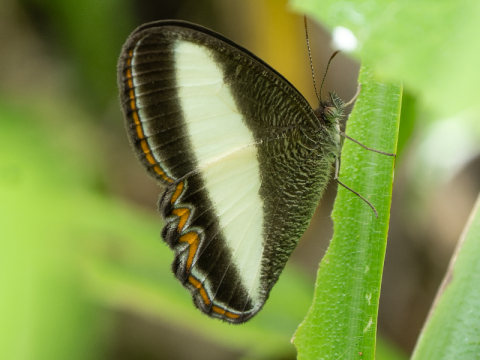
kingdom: Animalia
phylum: Arthropoda
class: Insecta
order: Lepidoptera
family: Nymphalidae
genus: Oressinoma
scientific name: Oressinoma typhla
